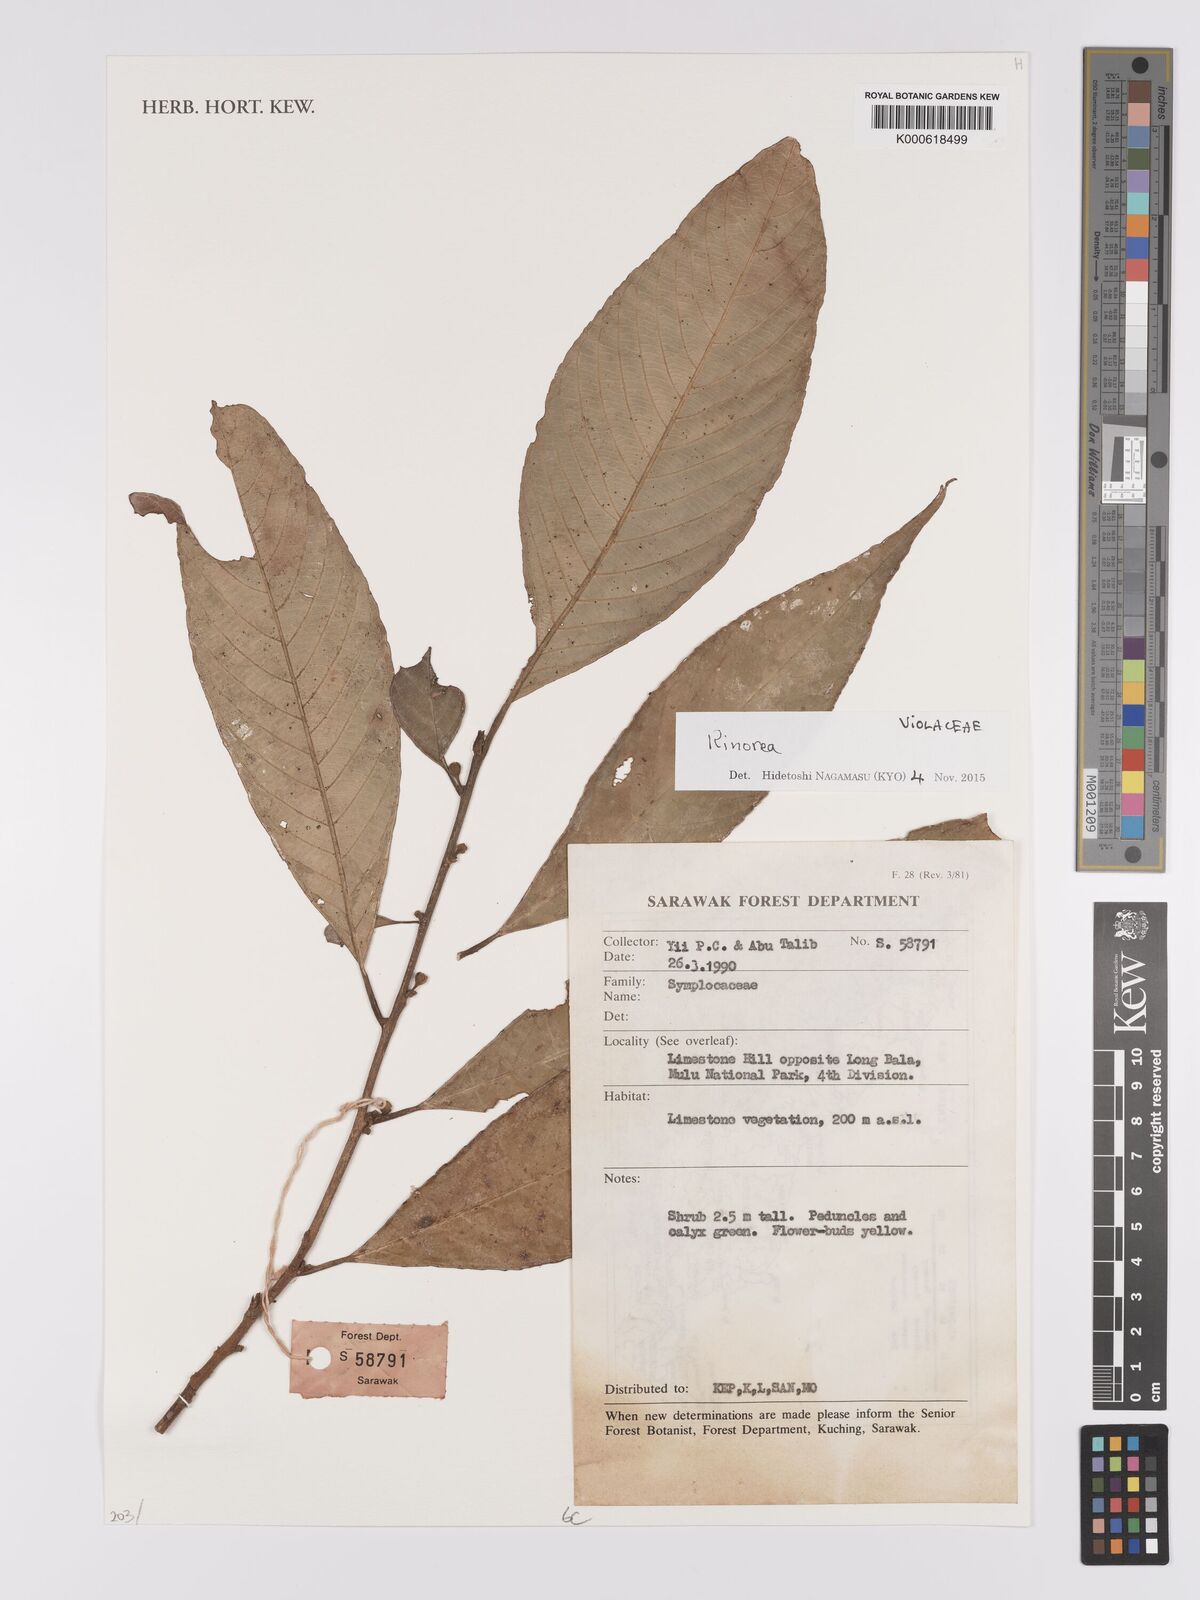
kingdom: Plantae
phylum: Tracheophyta
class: Magnoliopsida
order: Malpighiales
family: Violaceae
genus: Rinorea
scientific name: Rinorea
